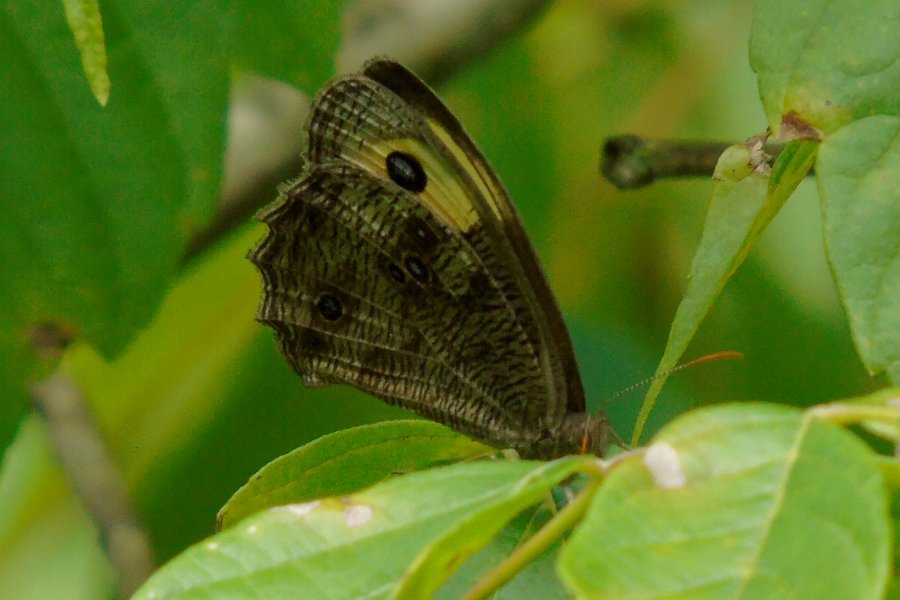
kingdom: Animalia
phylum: Arthropoda
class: Insecta
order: Lepidoptera
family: Nymphalidae
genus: Cercyonis
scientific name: Cercyonis pegala
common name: Common Wood-Nymph
